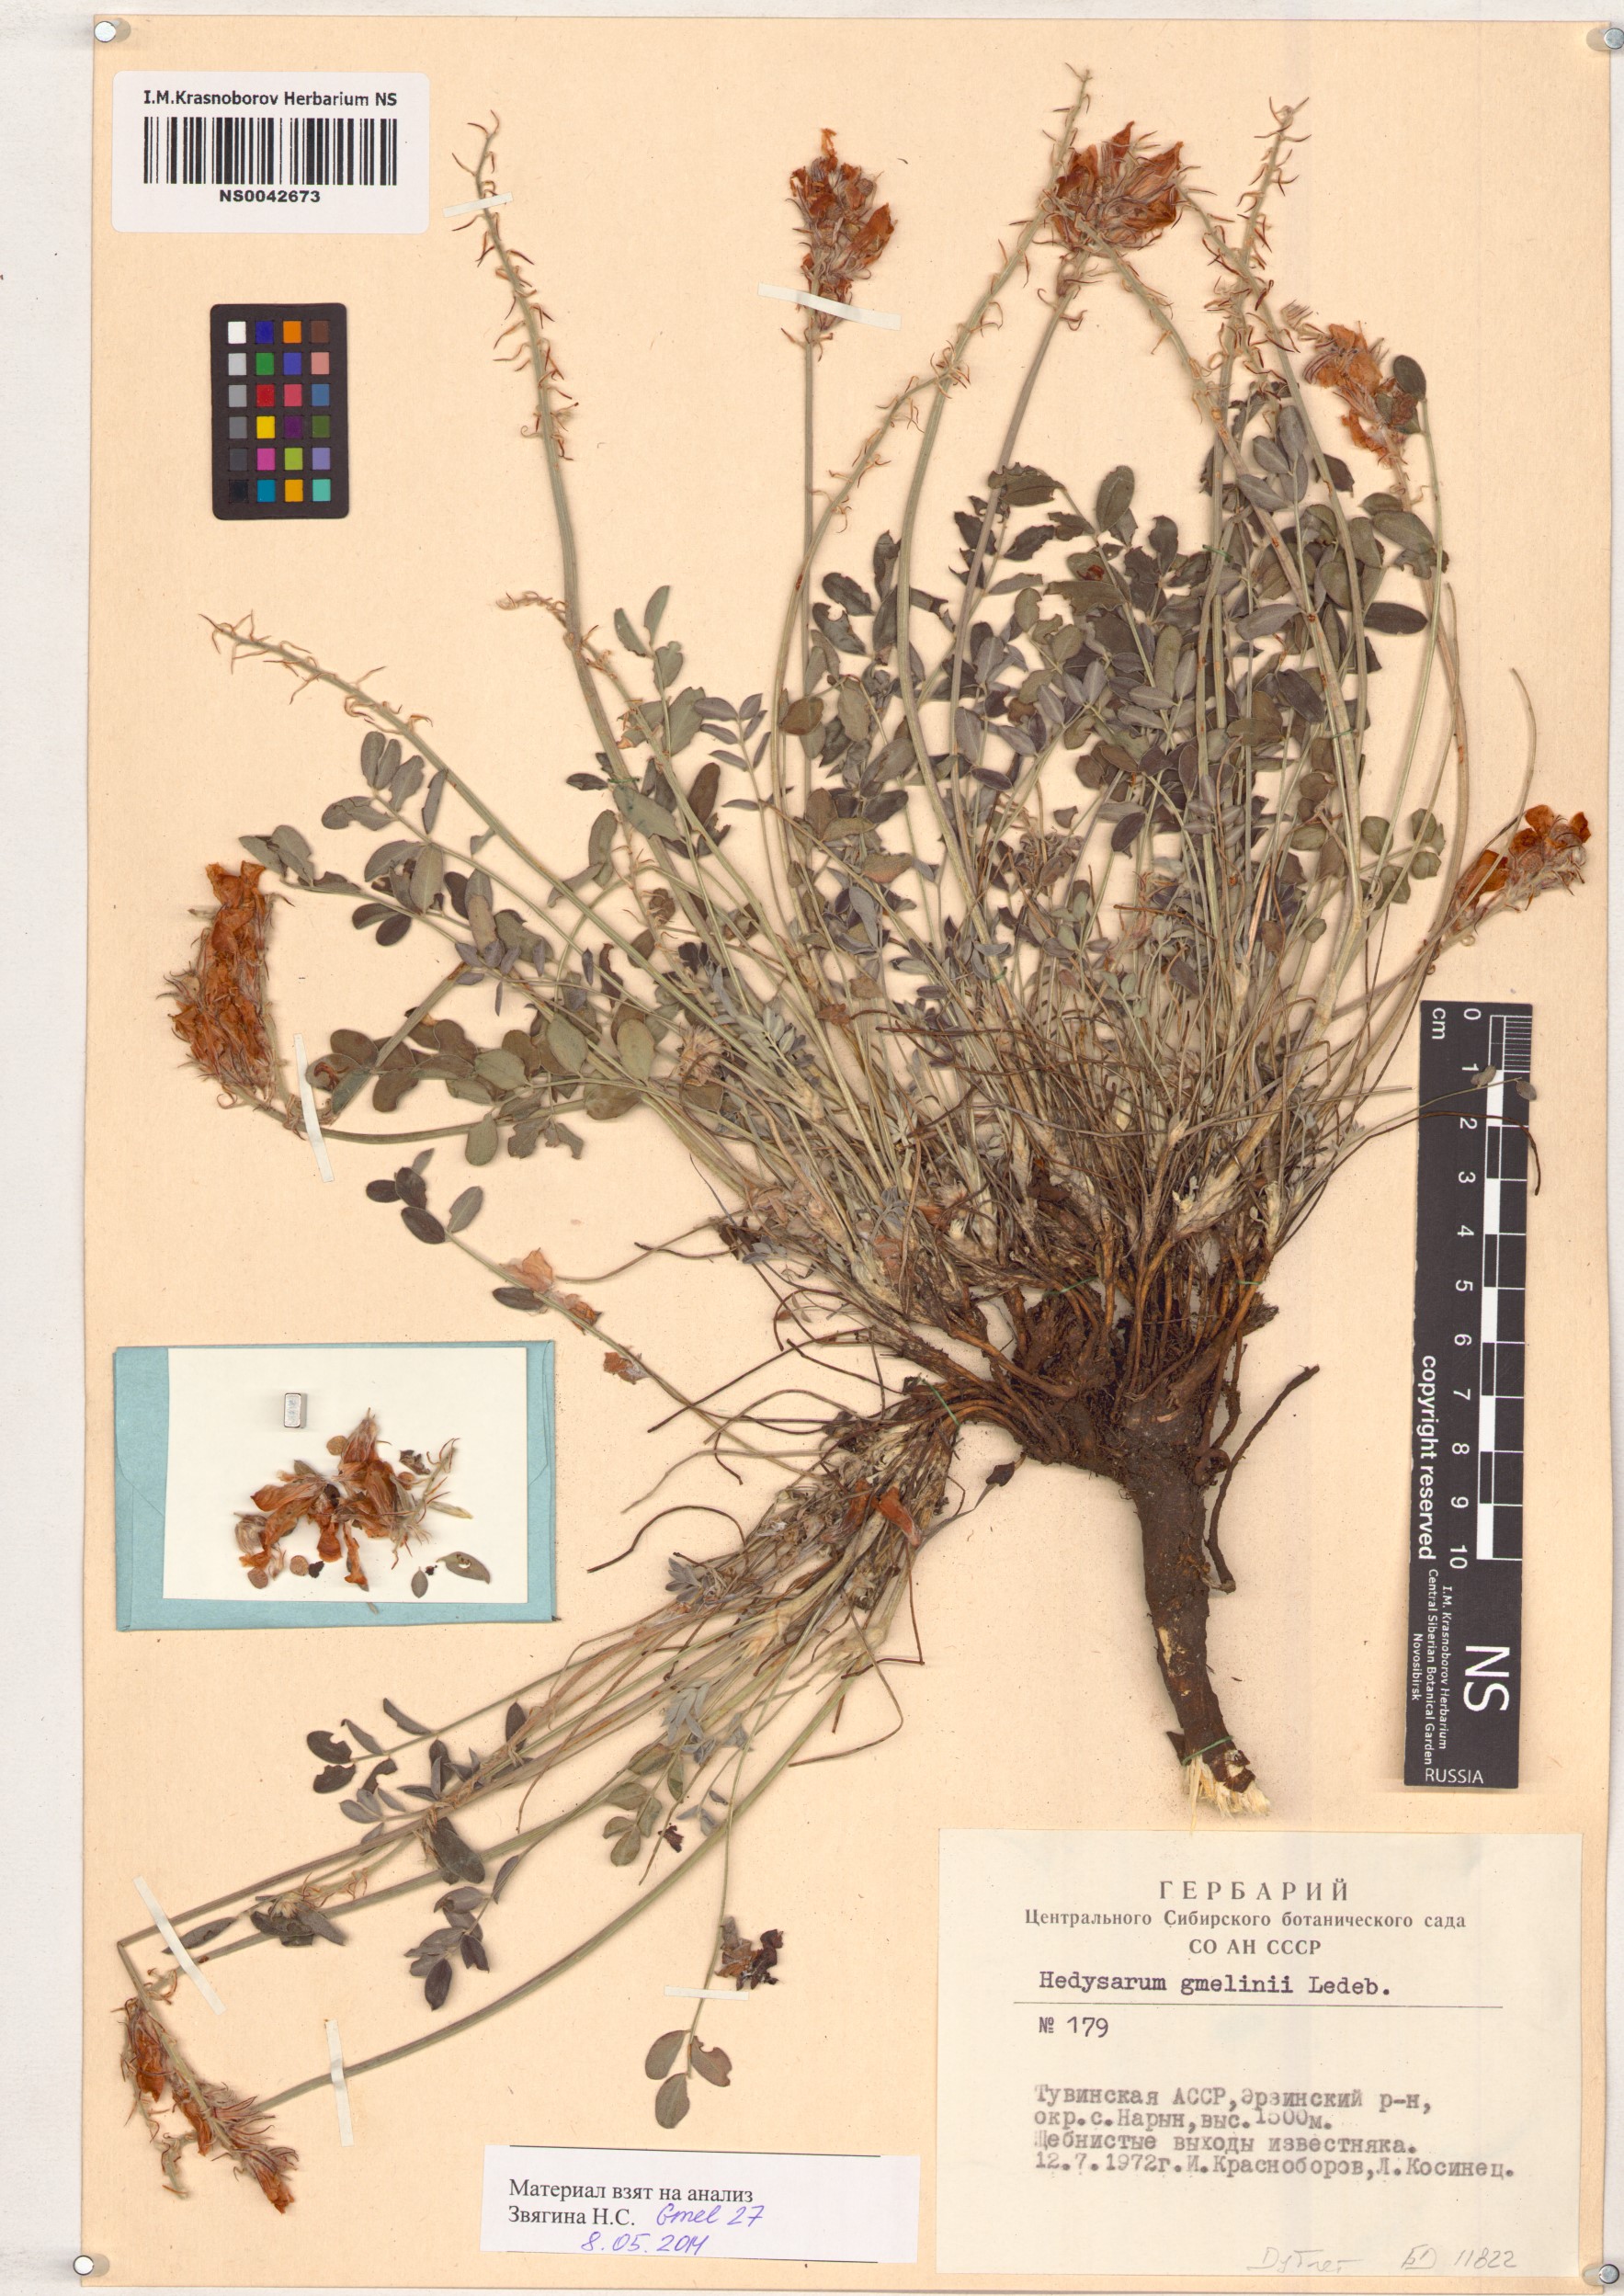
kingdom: Plantae
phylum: Tracheophyta
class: Magnoliopsida
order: Fabales
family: Fabaceae
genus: Hedysarum
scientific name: Hedysarum gmelinii
